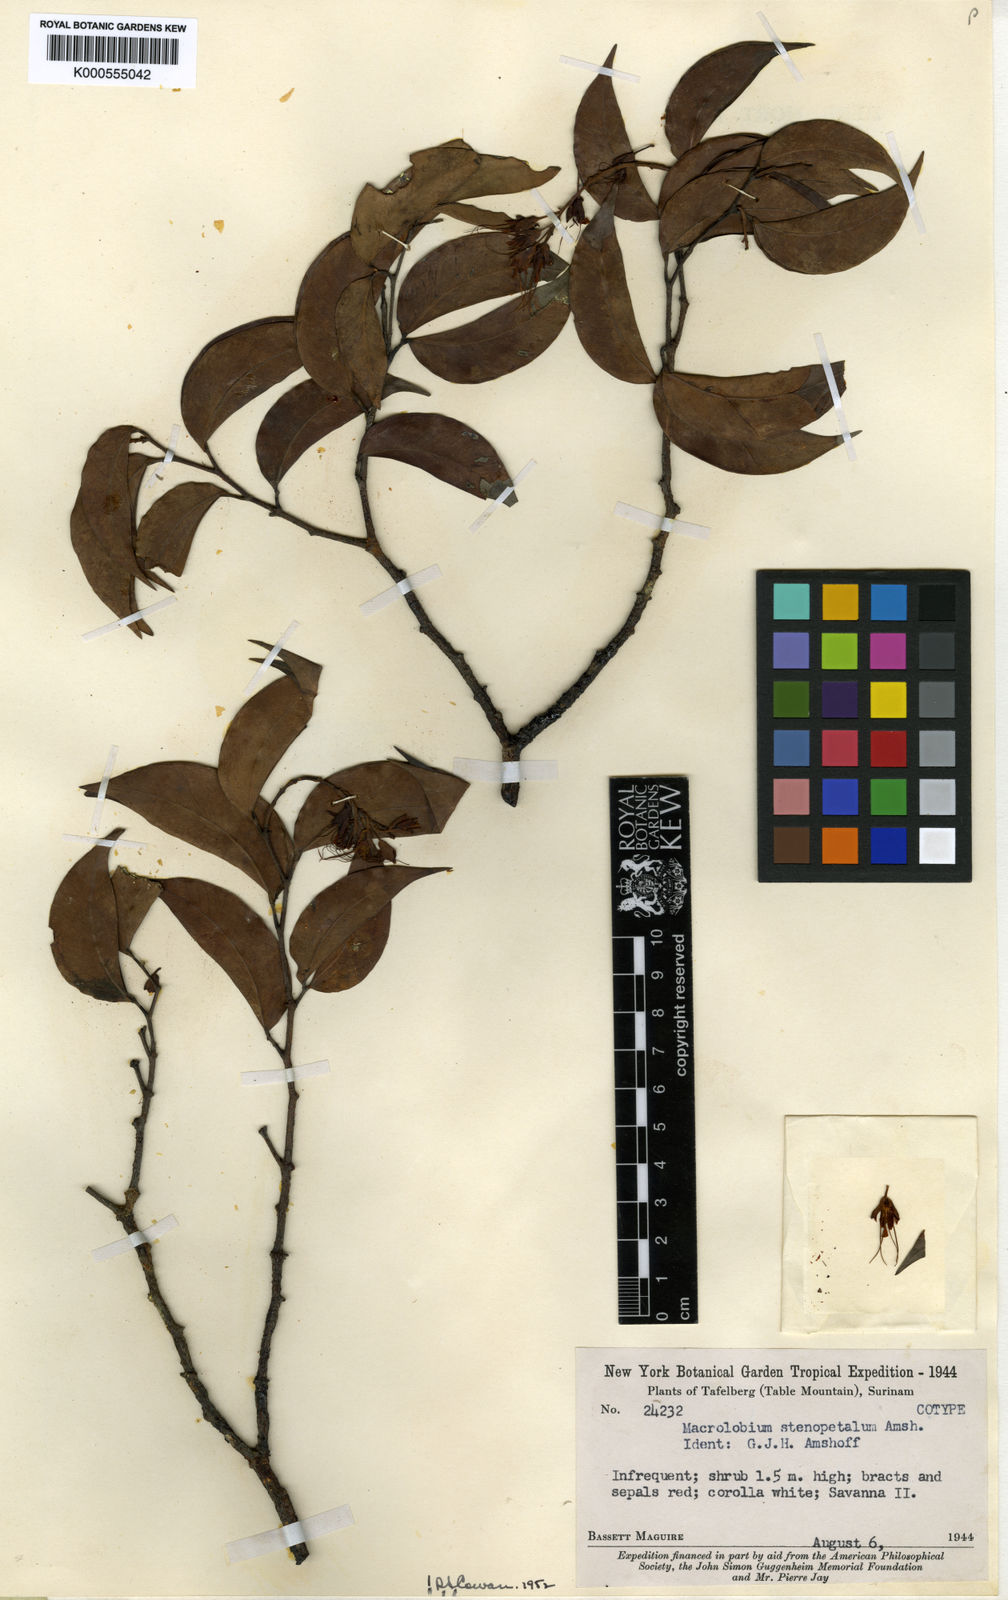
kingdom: Plantae
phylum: Tracheophyta
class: Magnoliopsida
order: Fabales
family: Fabaceae
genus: Macrolobium
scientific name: Macrolobium stenopetalum
